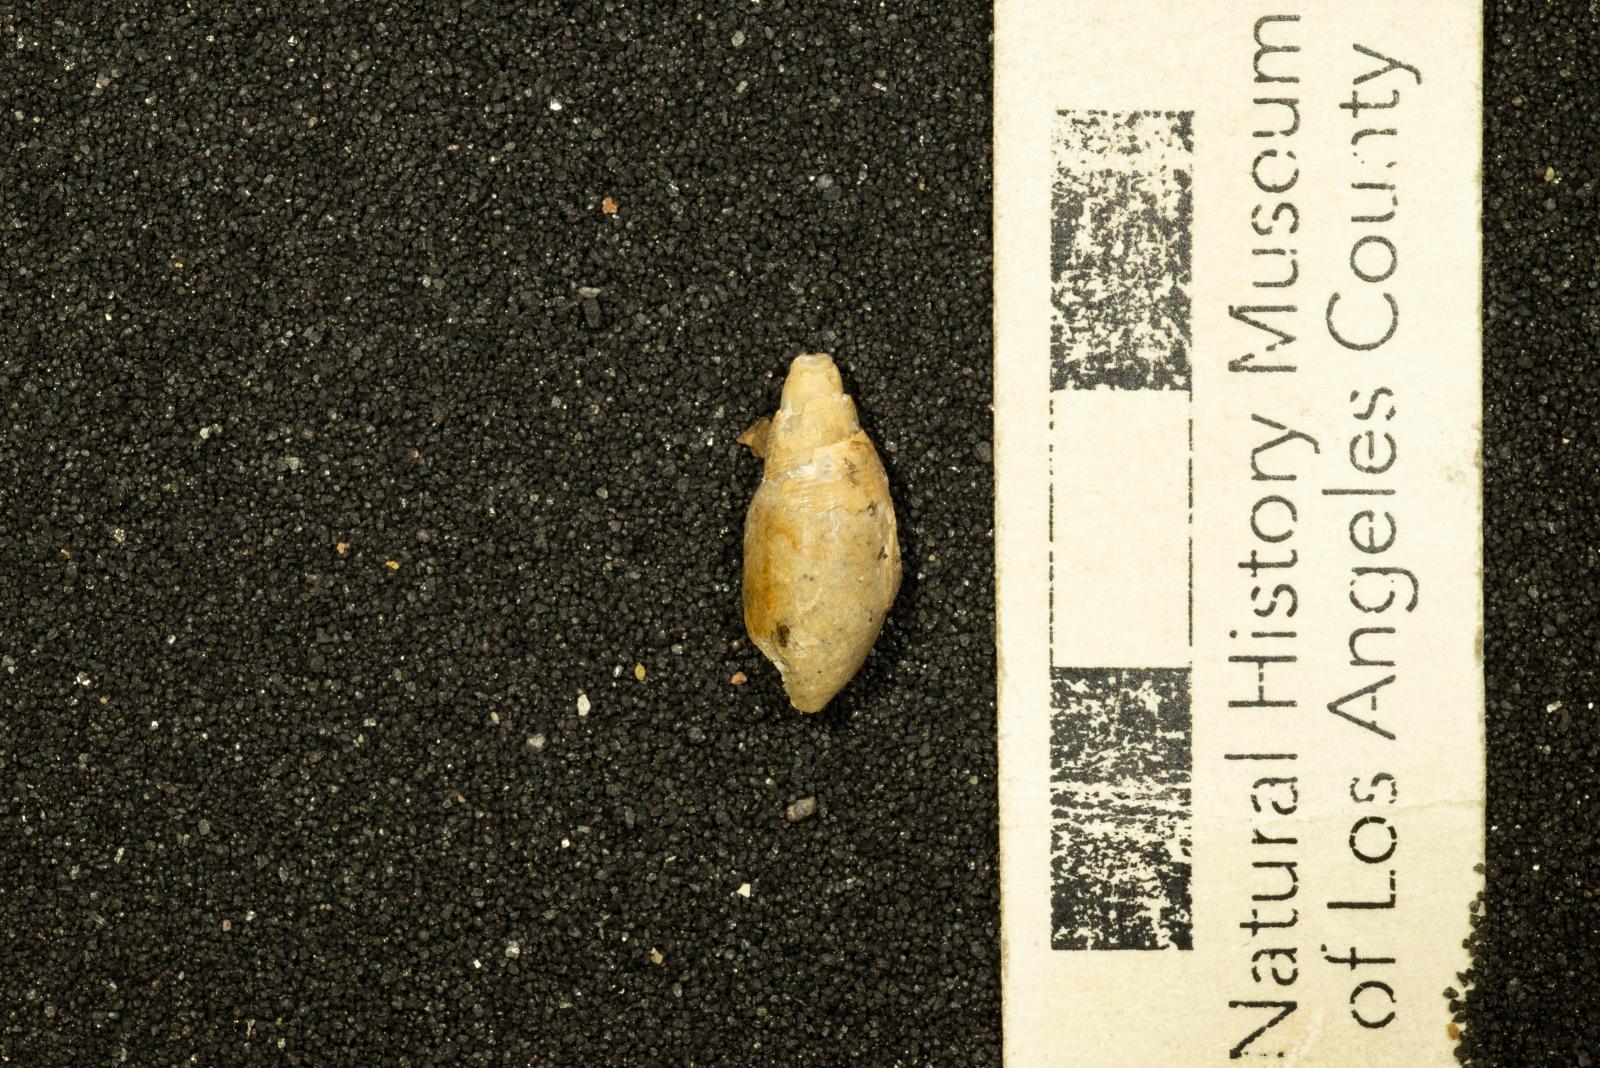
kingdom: Animalia
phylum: Mollusca
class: Gastropoda
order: Cephalaspidea
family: Acteonidae
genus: Nonacteonina
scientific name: Nonacteonina
